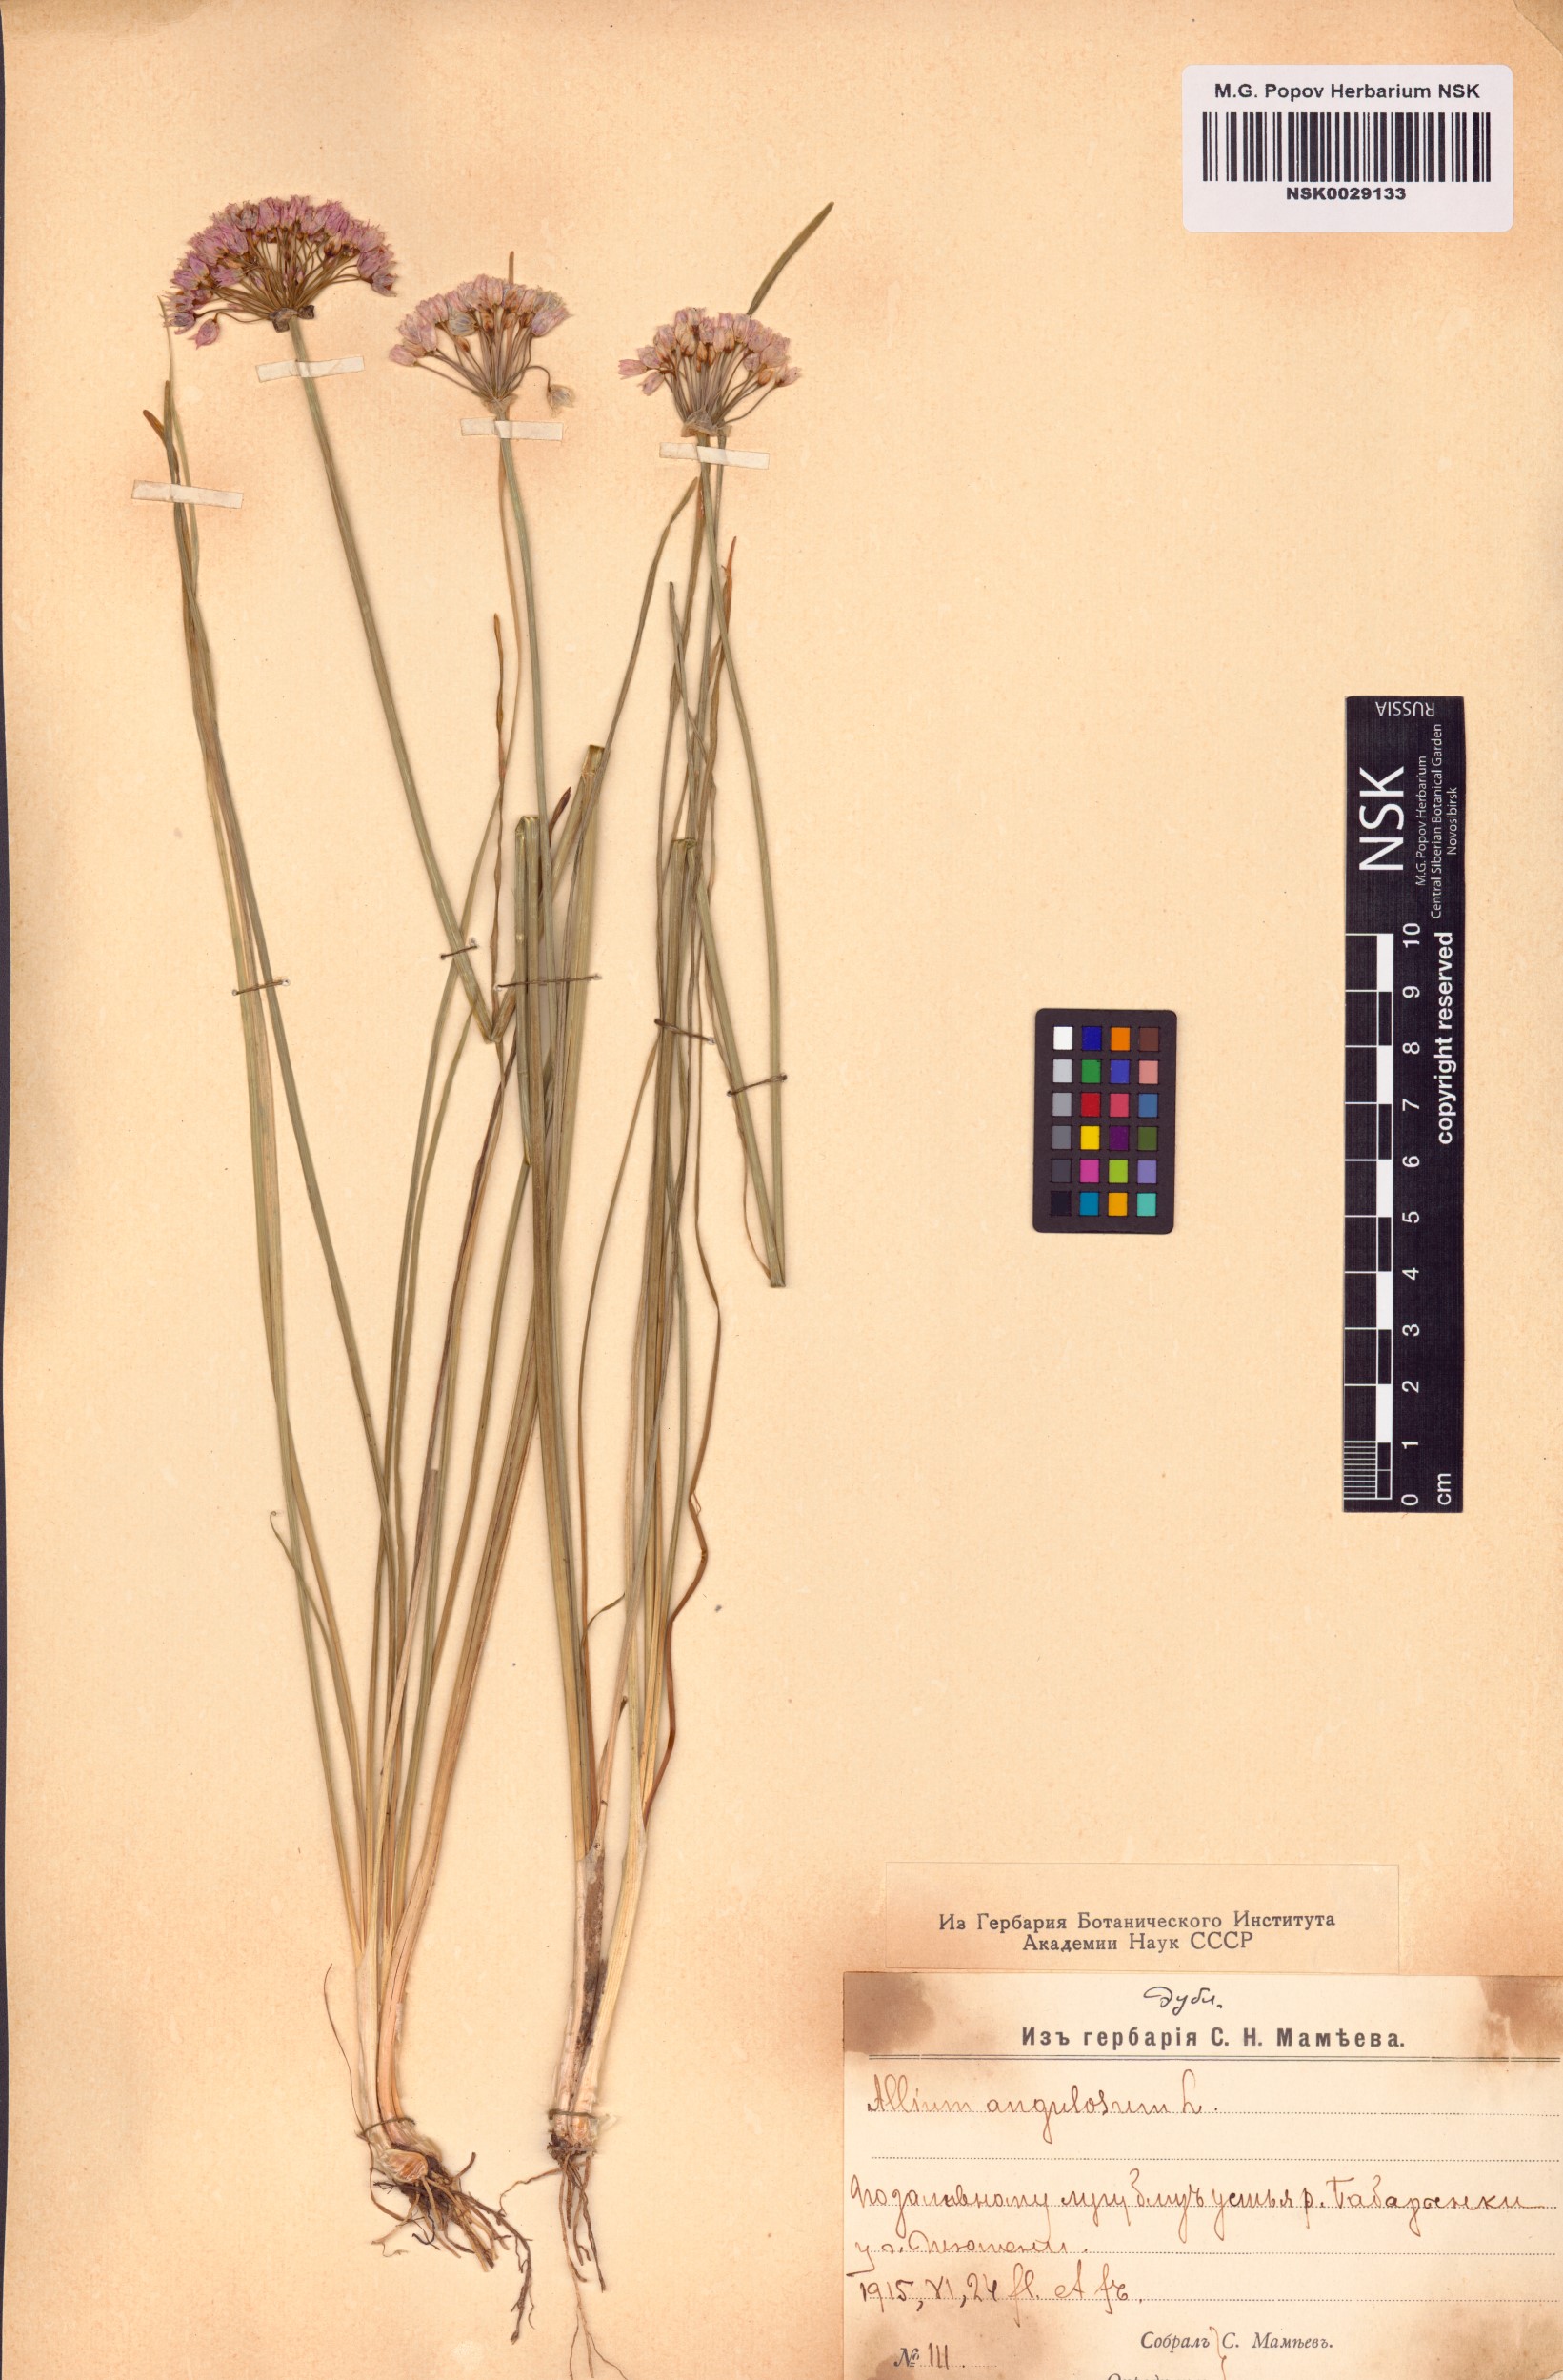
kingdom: Plantae
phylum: Tracheophyta
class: Liliopsida
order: Asparagales
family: Amaryllidaceae
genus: Allium
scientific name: Allium angulosum
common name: Mouse garlic
